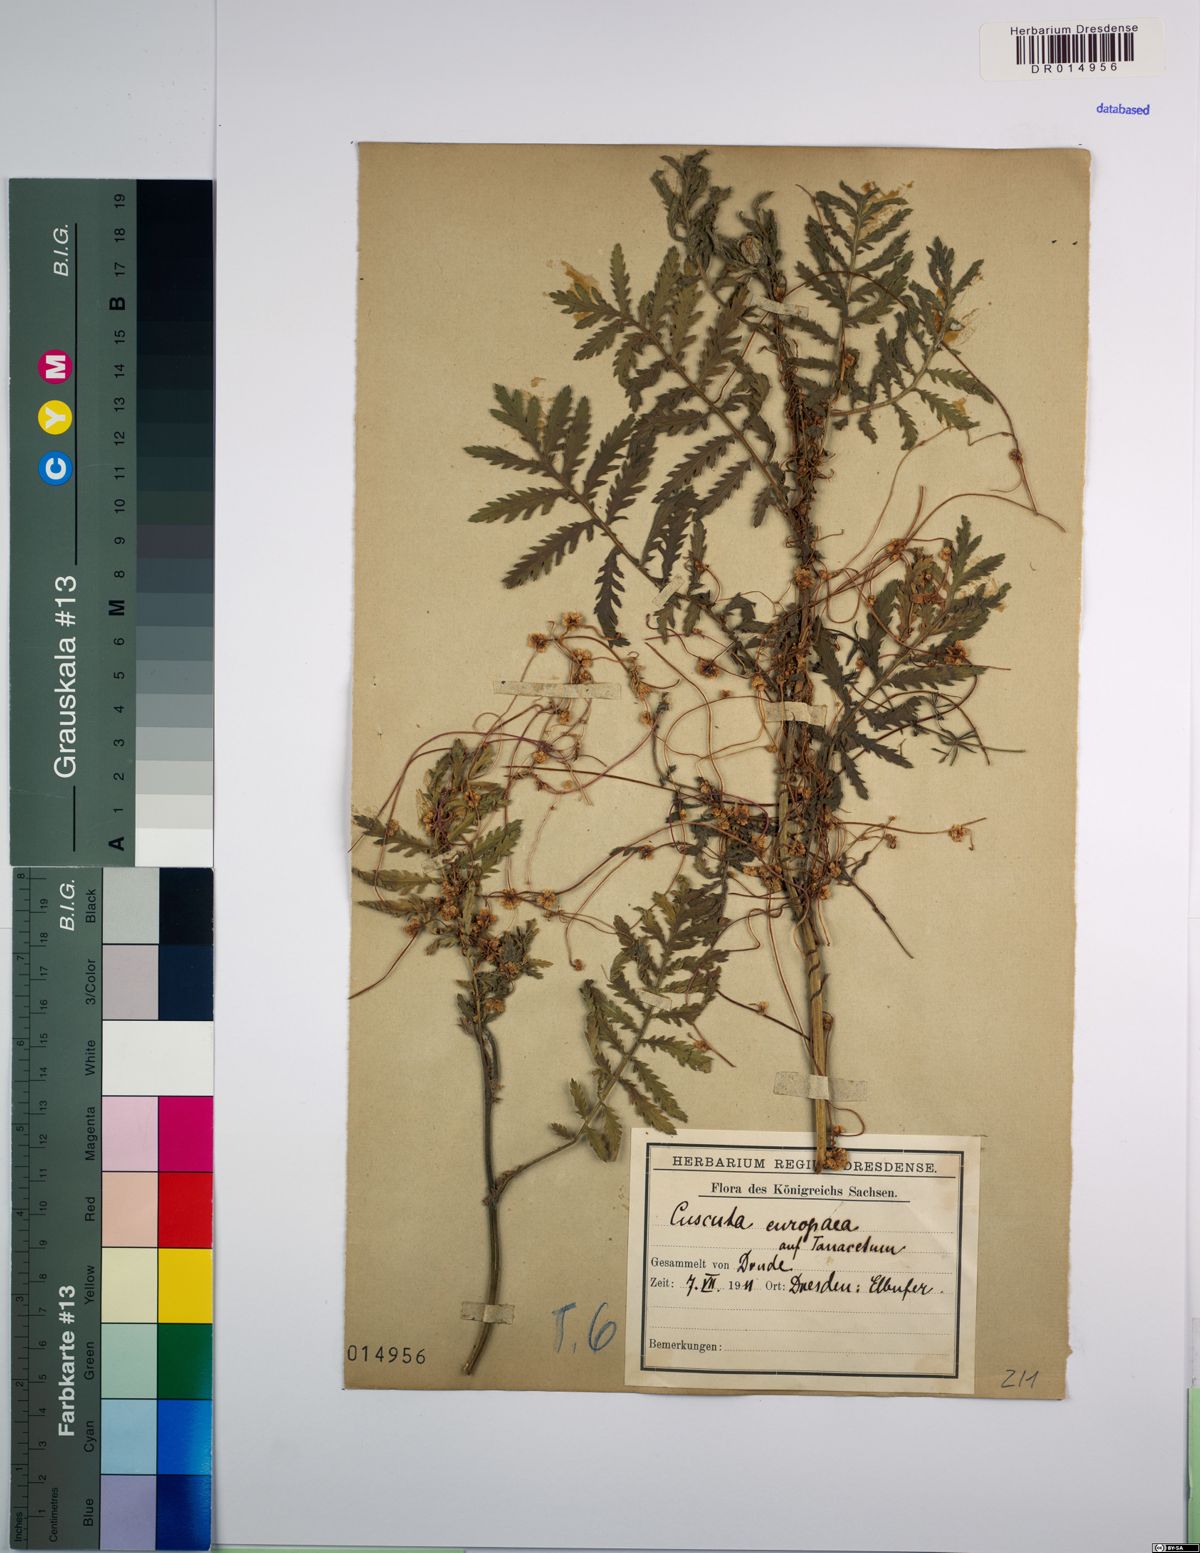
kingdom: Plantae
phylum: Tracheophyta
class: Magnoliopsida
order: Solanales
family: Convolvulaceae
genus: Cuscuta
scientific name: Cuscuta europaea
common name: Greater dodder
